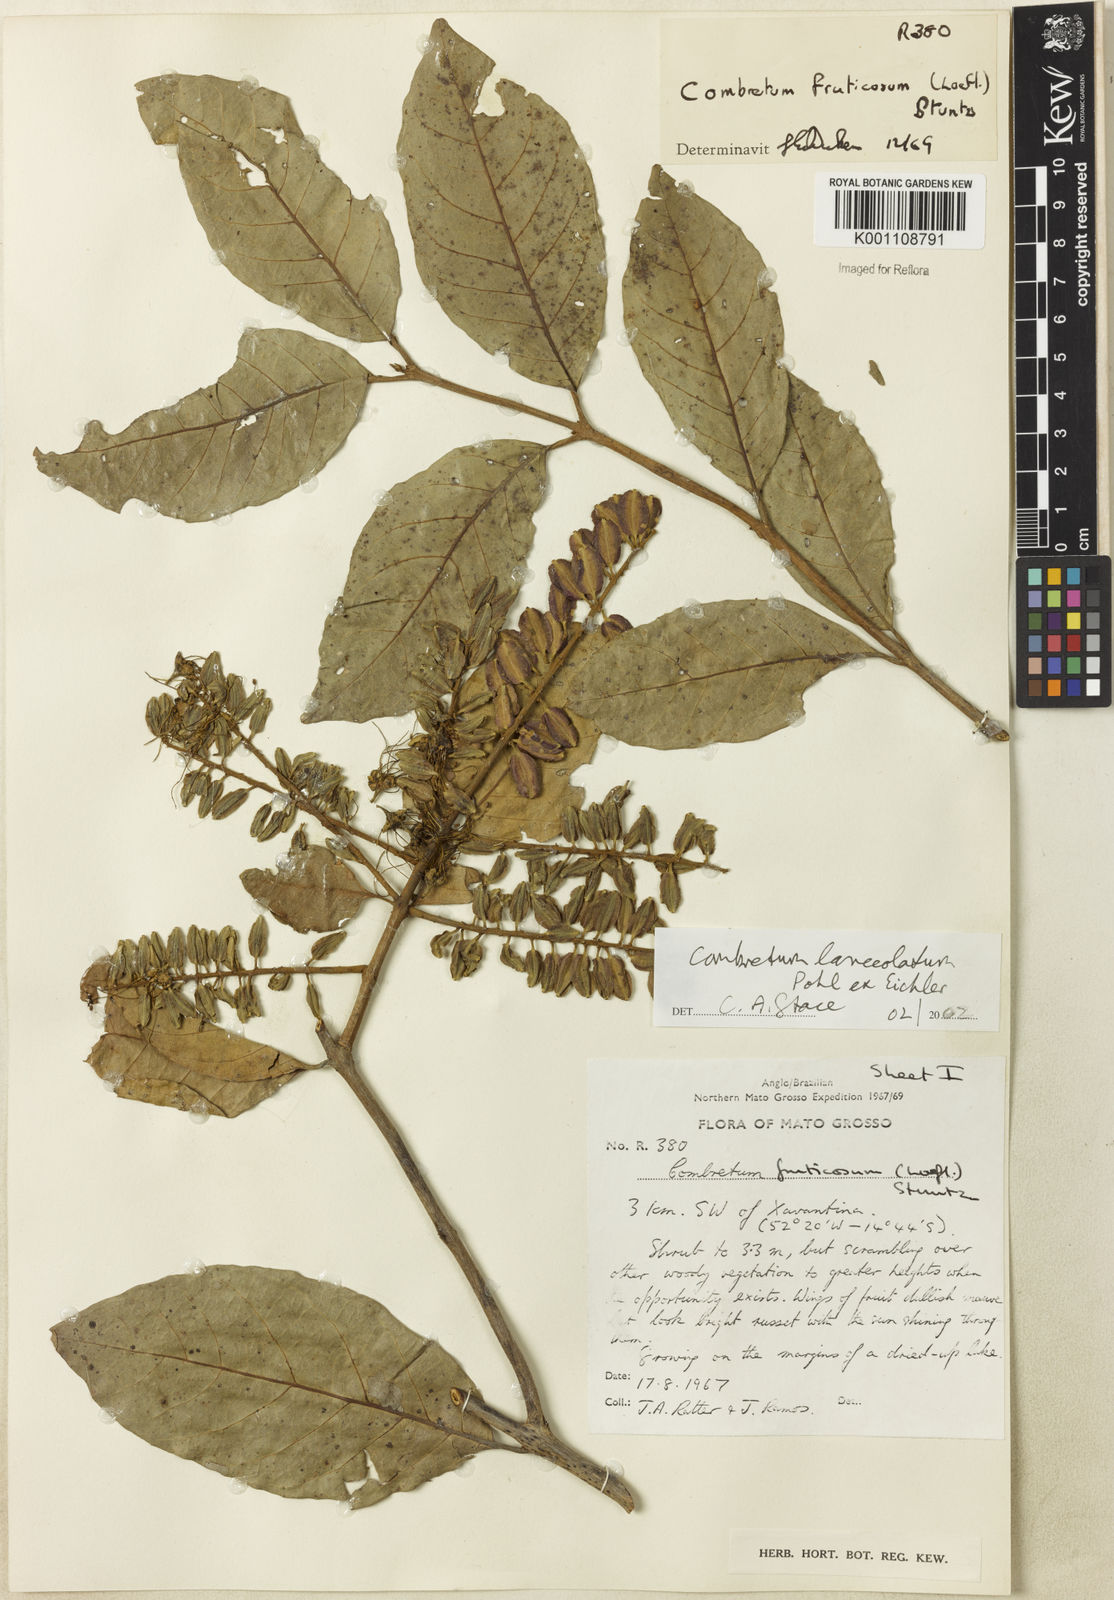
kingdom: Plantae
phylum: Tracheophyta
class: Magnoliopsida
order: Myrtales
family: Combretaceae
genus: Combretum
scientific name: Combretum lanceolatum
